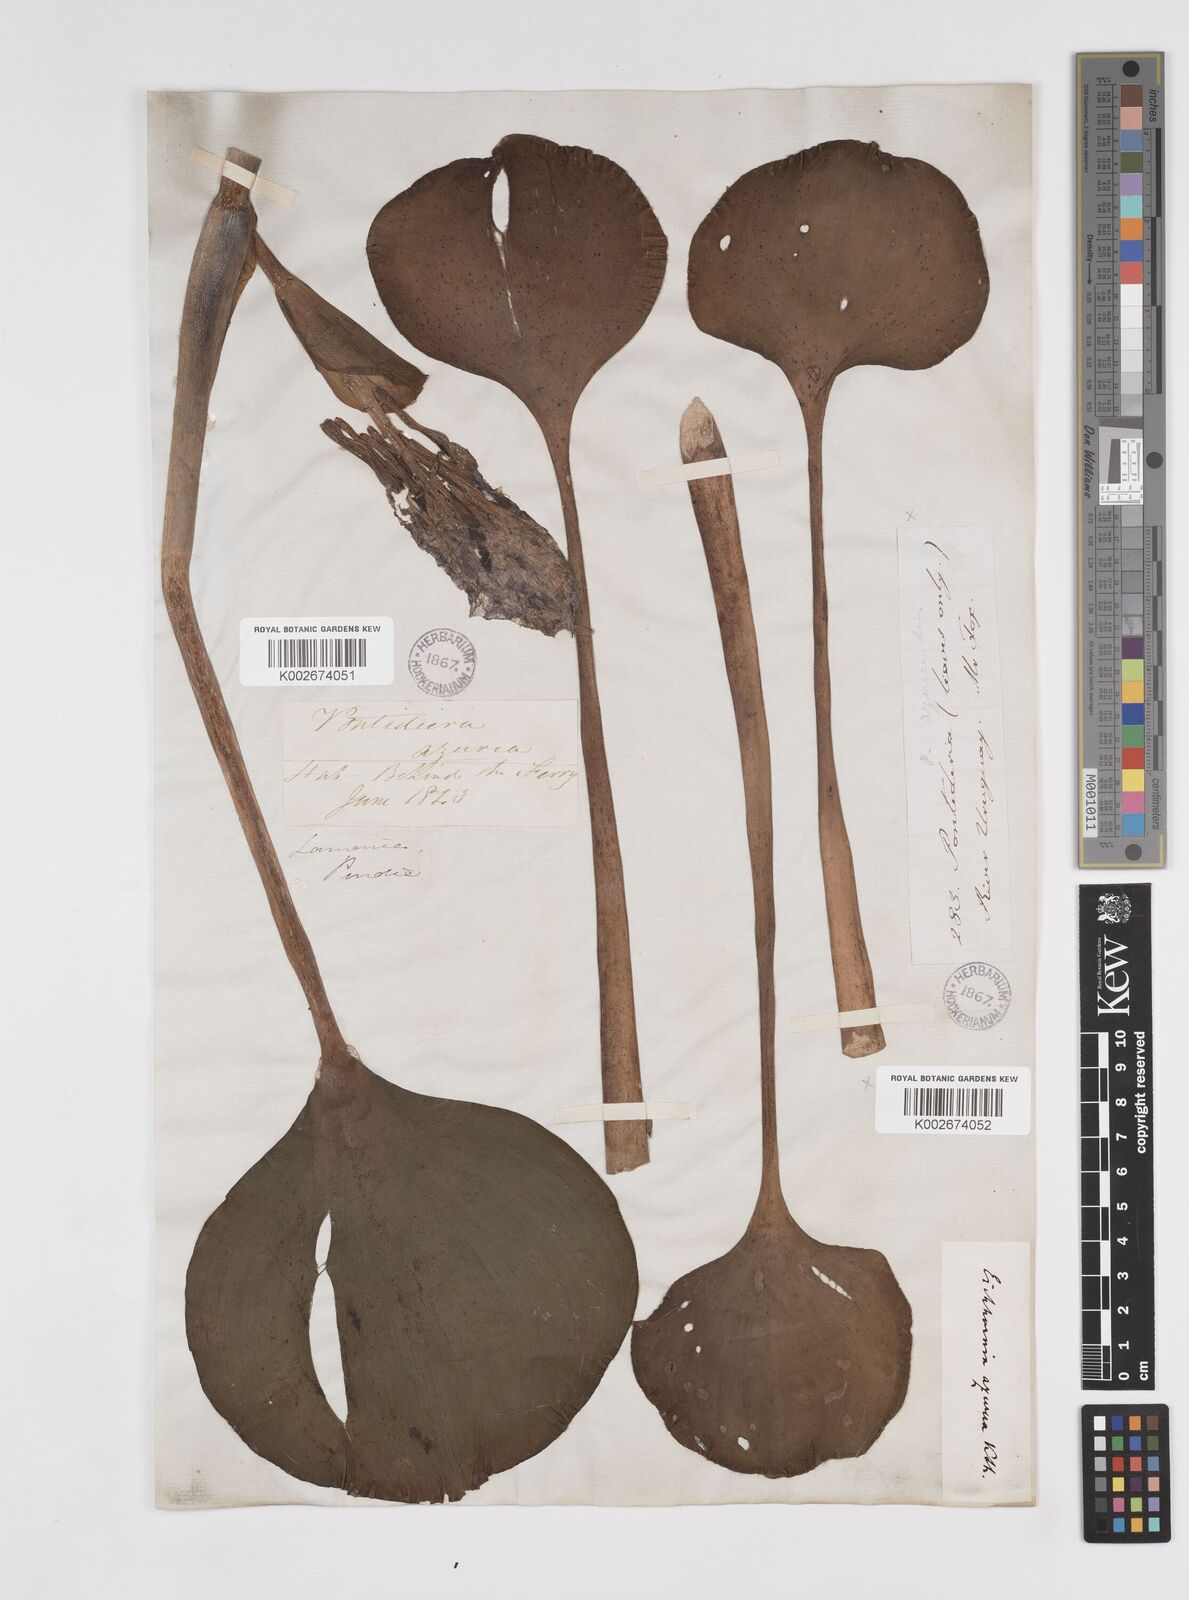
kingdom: Plantae
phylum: Tracheophyta
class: Liliopsida
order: Commelinales
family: Pontederiaceae
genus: Pontederia
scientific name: Pontederia azurea
